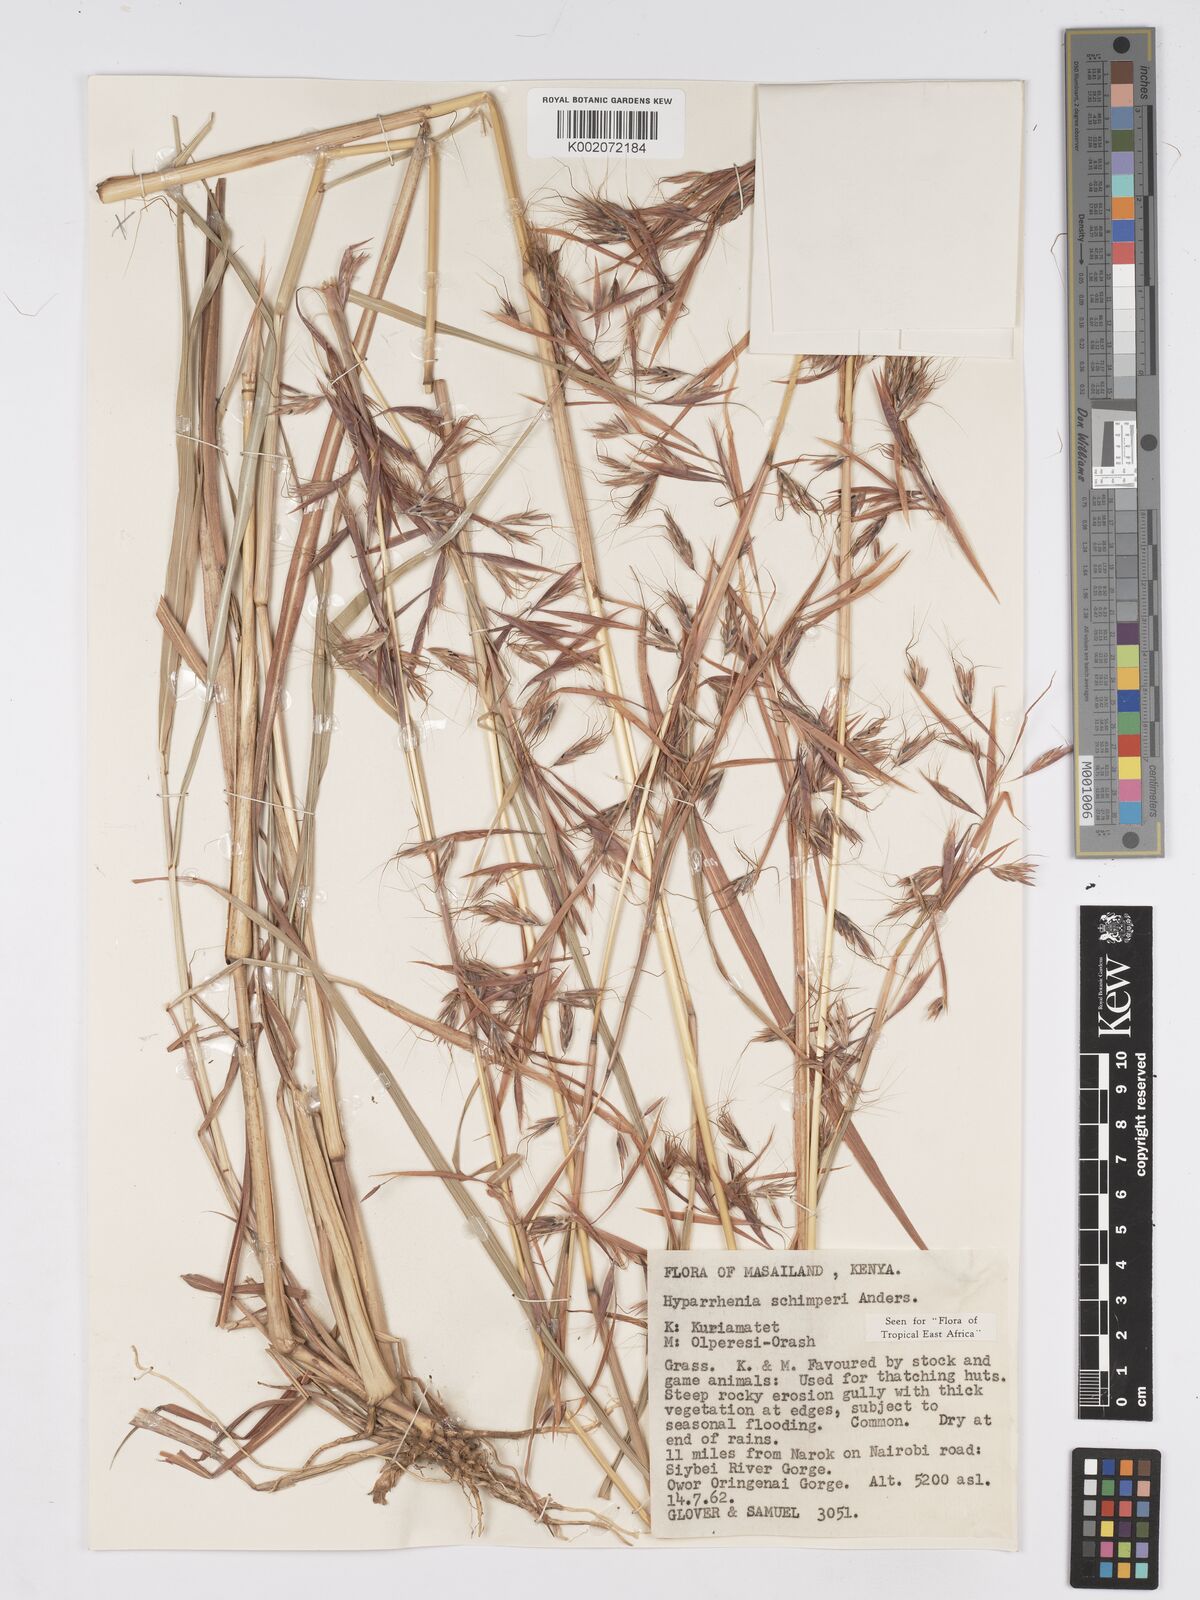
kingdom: Plantae
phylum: Tracheophyta
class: Liliopsida
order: Poales
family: Poaceae
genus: Hyparrhenia
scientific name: Hyparrhenia schimperi
